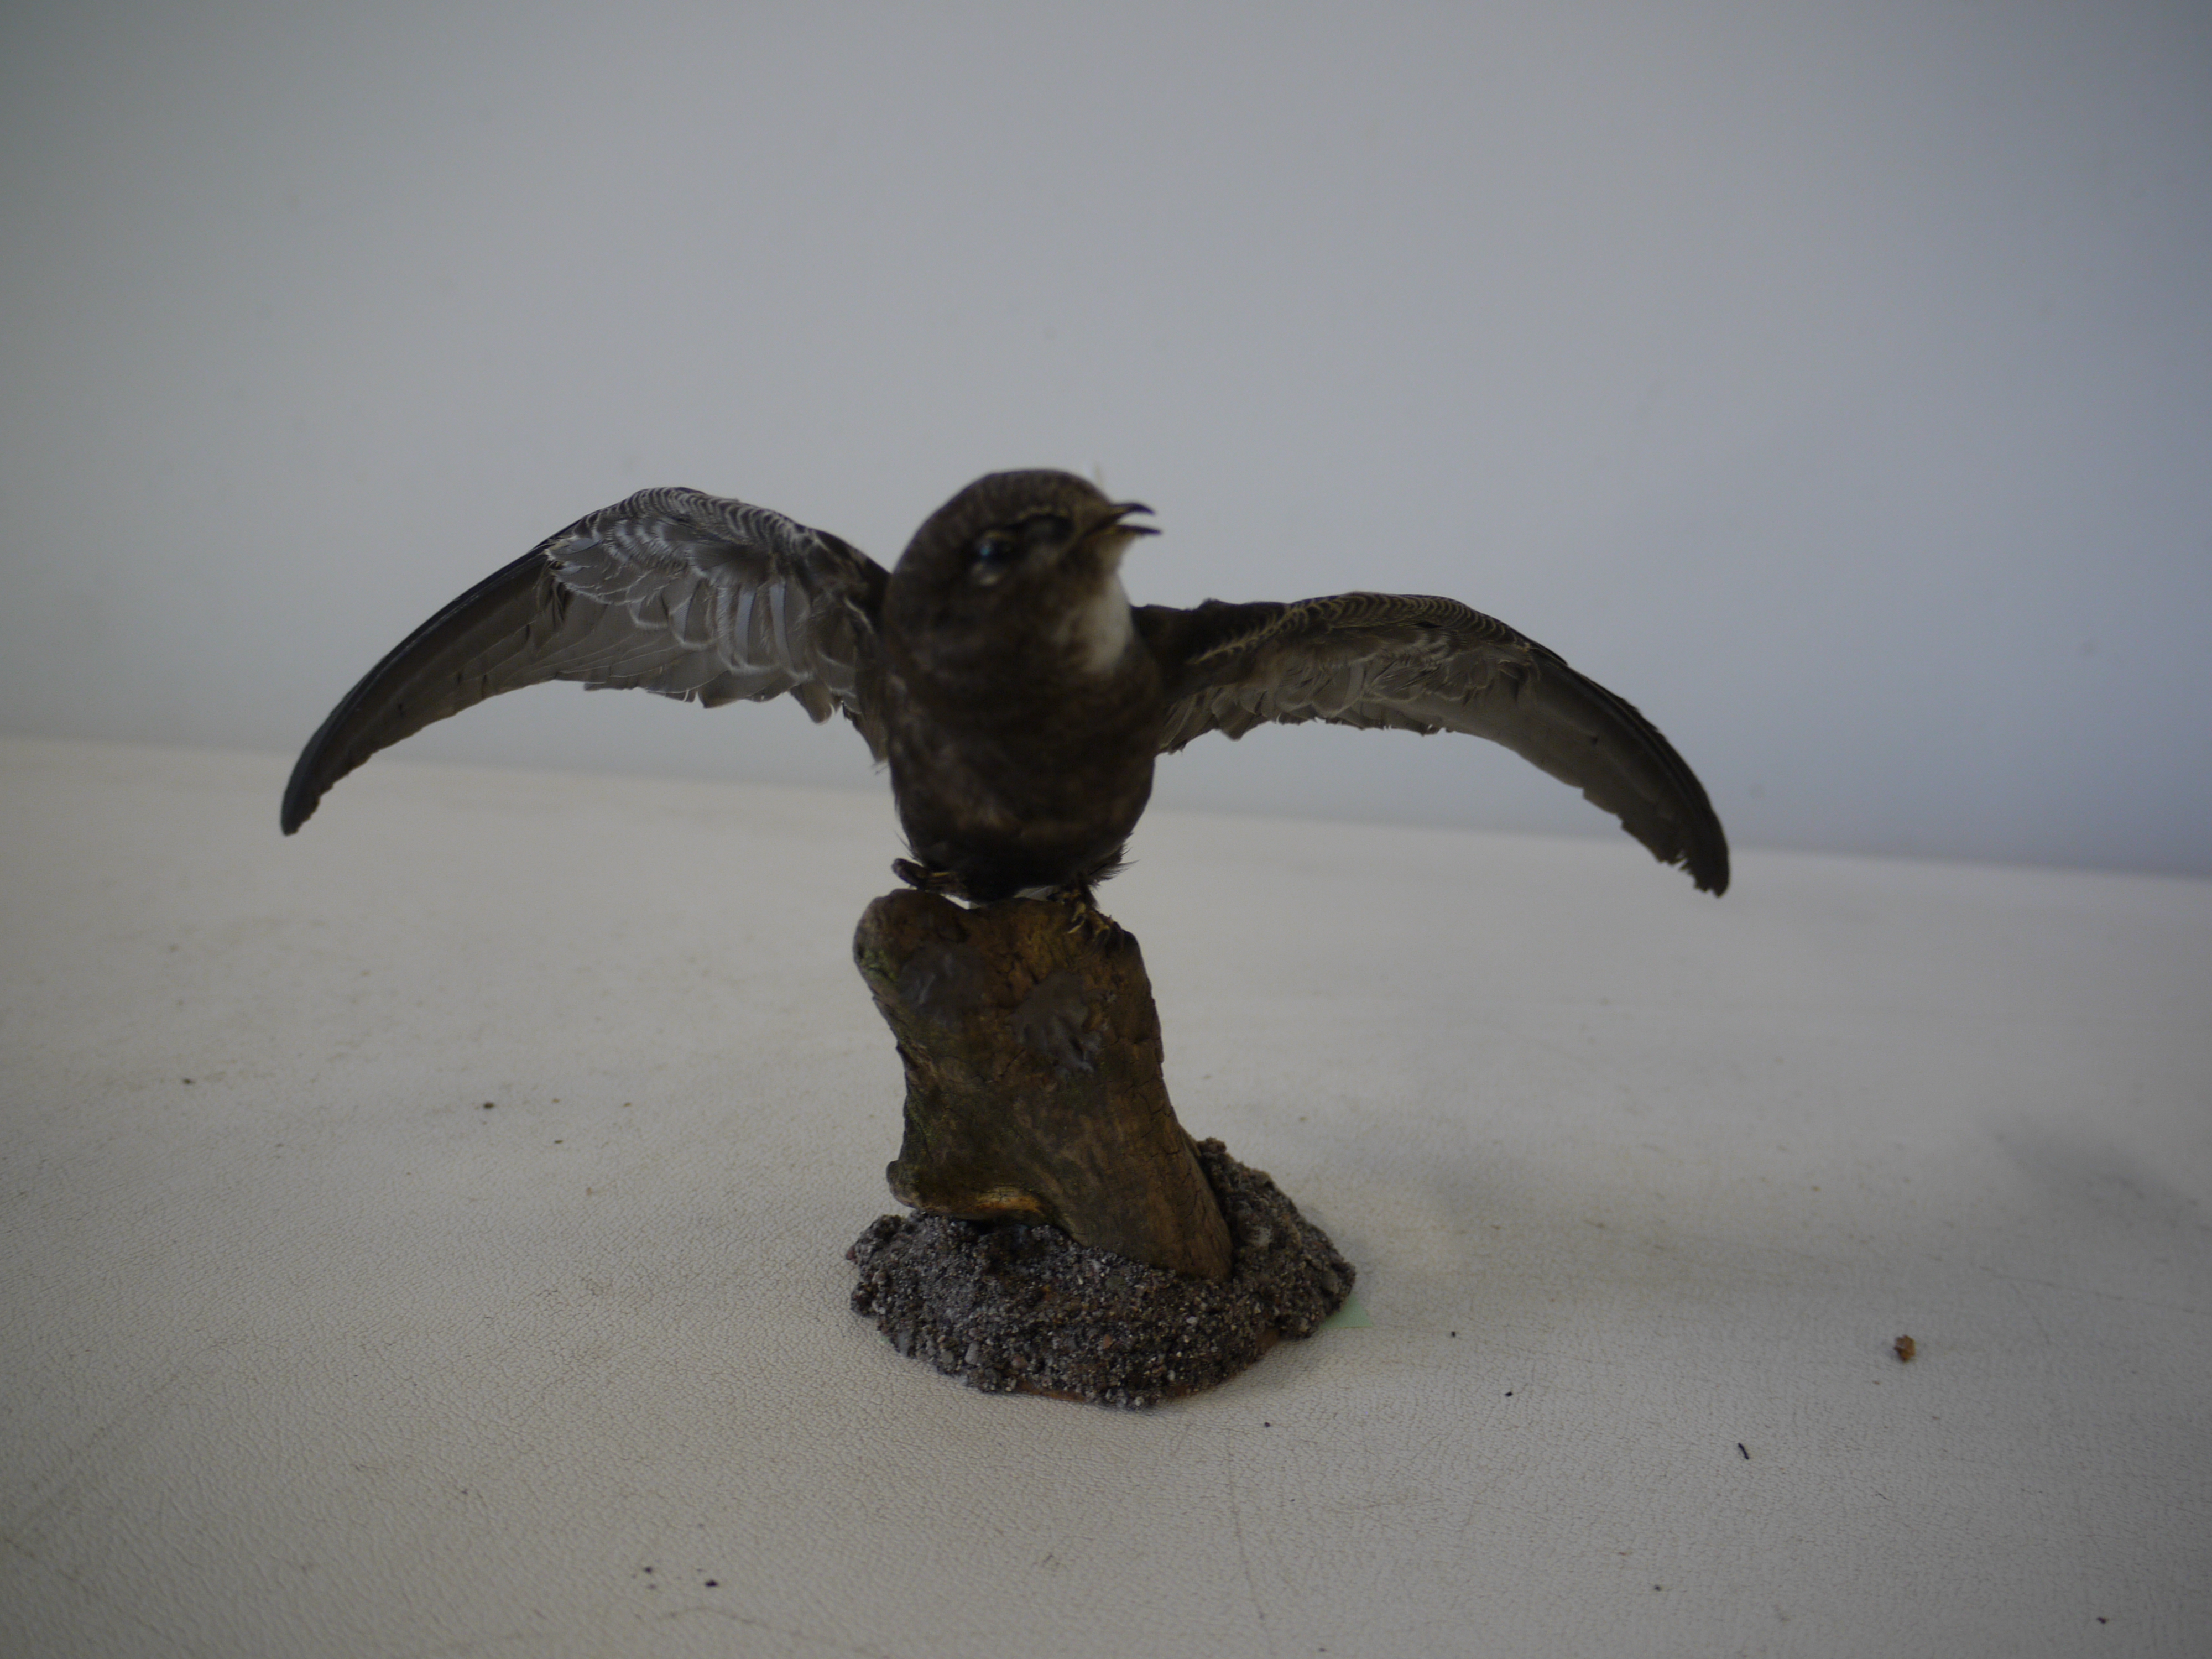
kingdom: Animalia
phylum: Chordata
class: Aves
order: Apodiformes
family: Apodidae
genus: Apus
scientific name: Apus apus
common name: Common swift
